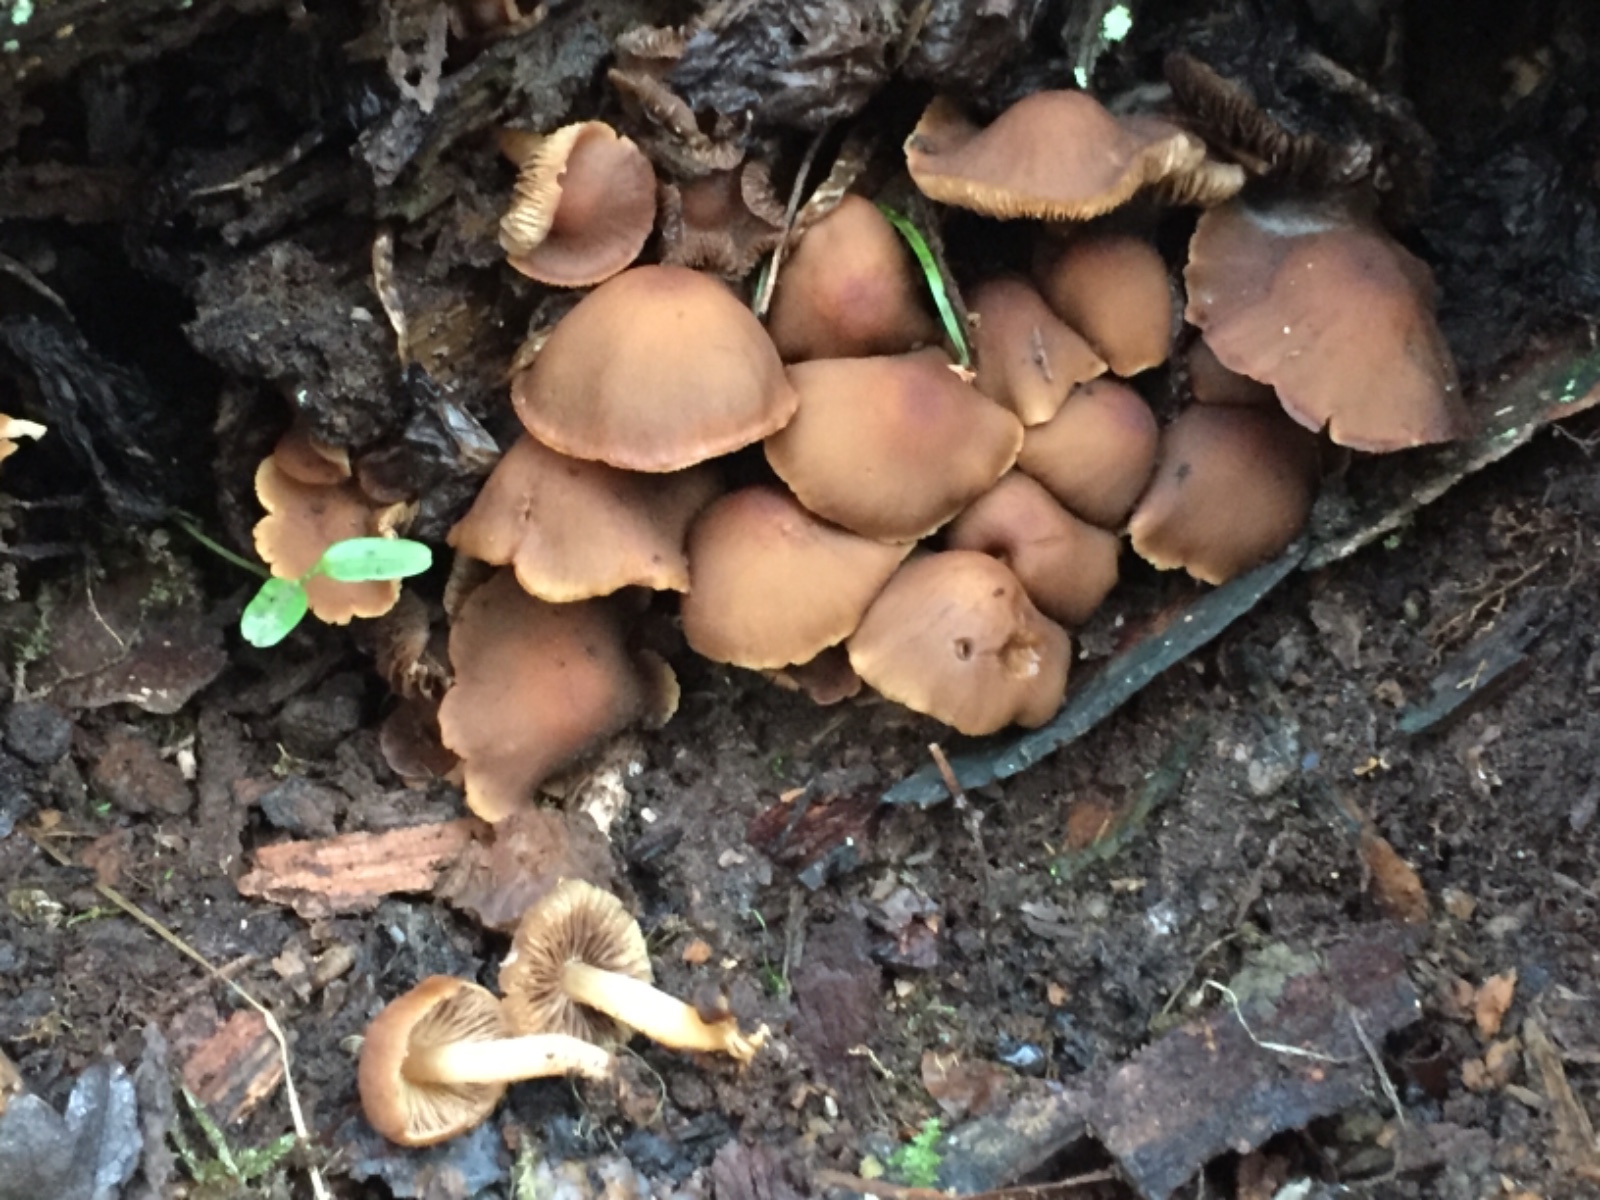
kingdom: Fungi
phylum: Basidiomycota
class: Agaricomycetes
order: Agaricales
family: Psathyrellaceae
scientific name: Psathyrellaceae
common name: mørkhatfamilien
